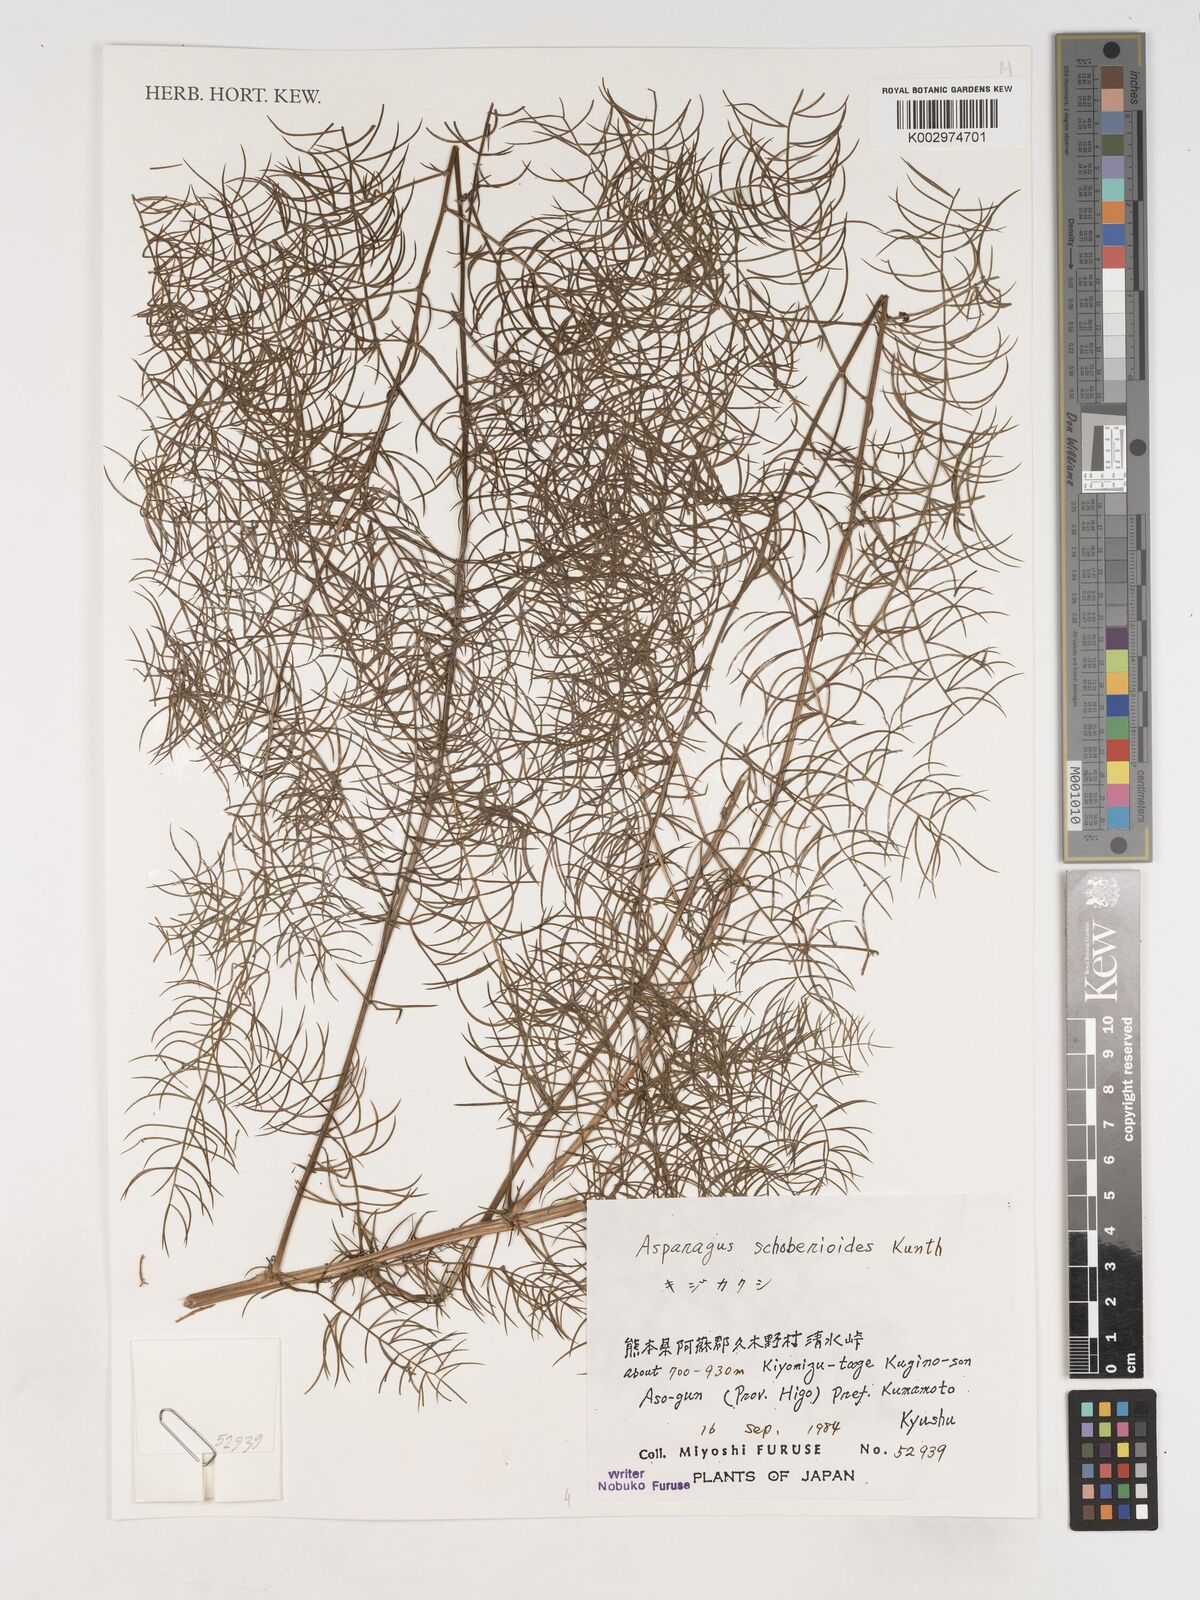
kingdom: Plantae
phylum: Tracheophyta
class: Liliopsida
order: Asparagales
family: Asparagaceae
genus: Asparagus
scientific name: Asparagus schoberioides
